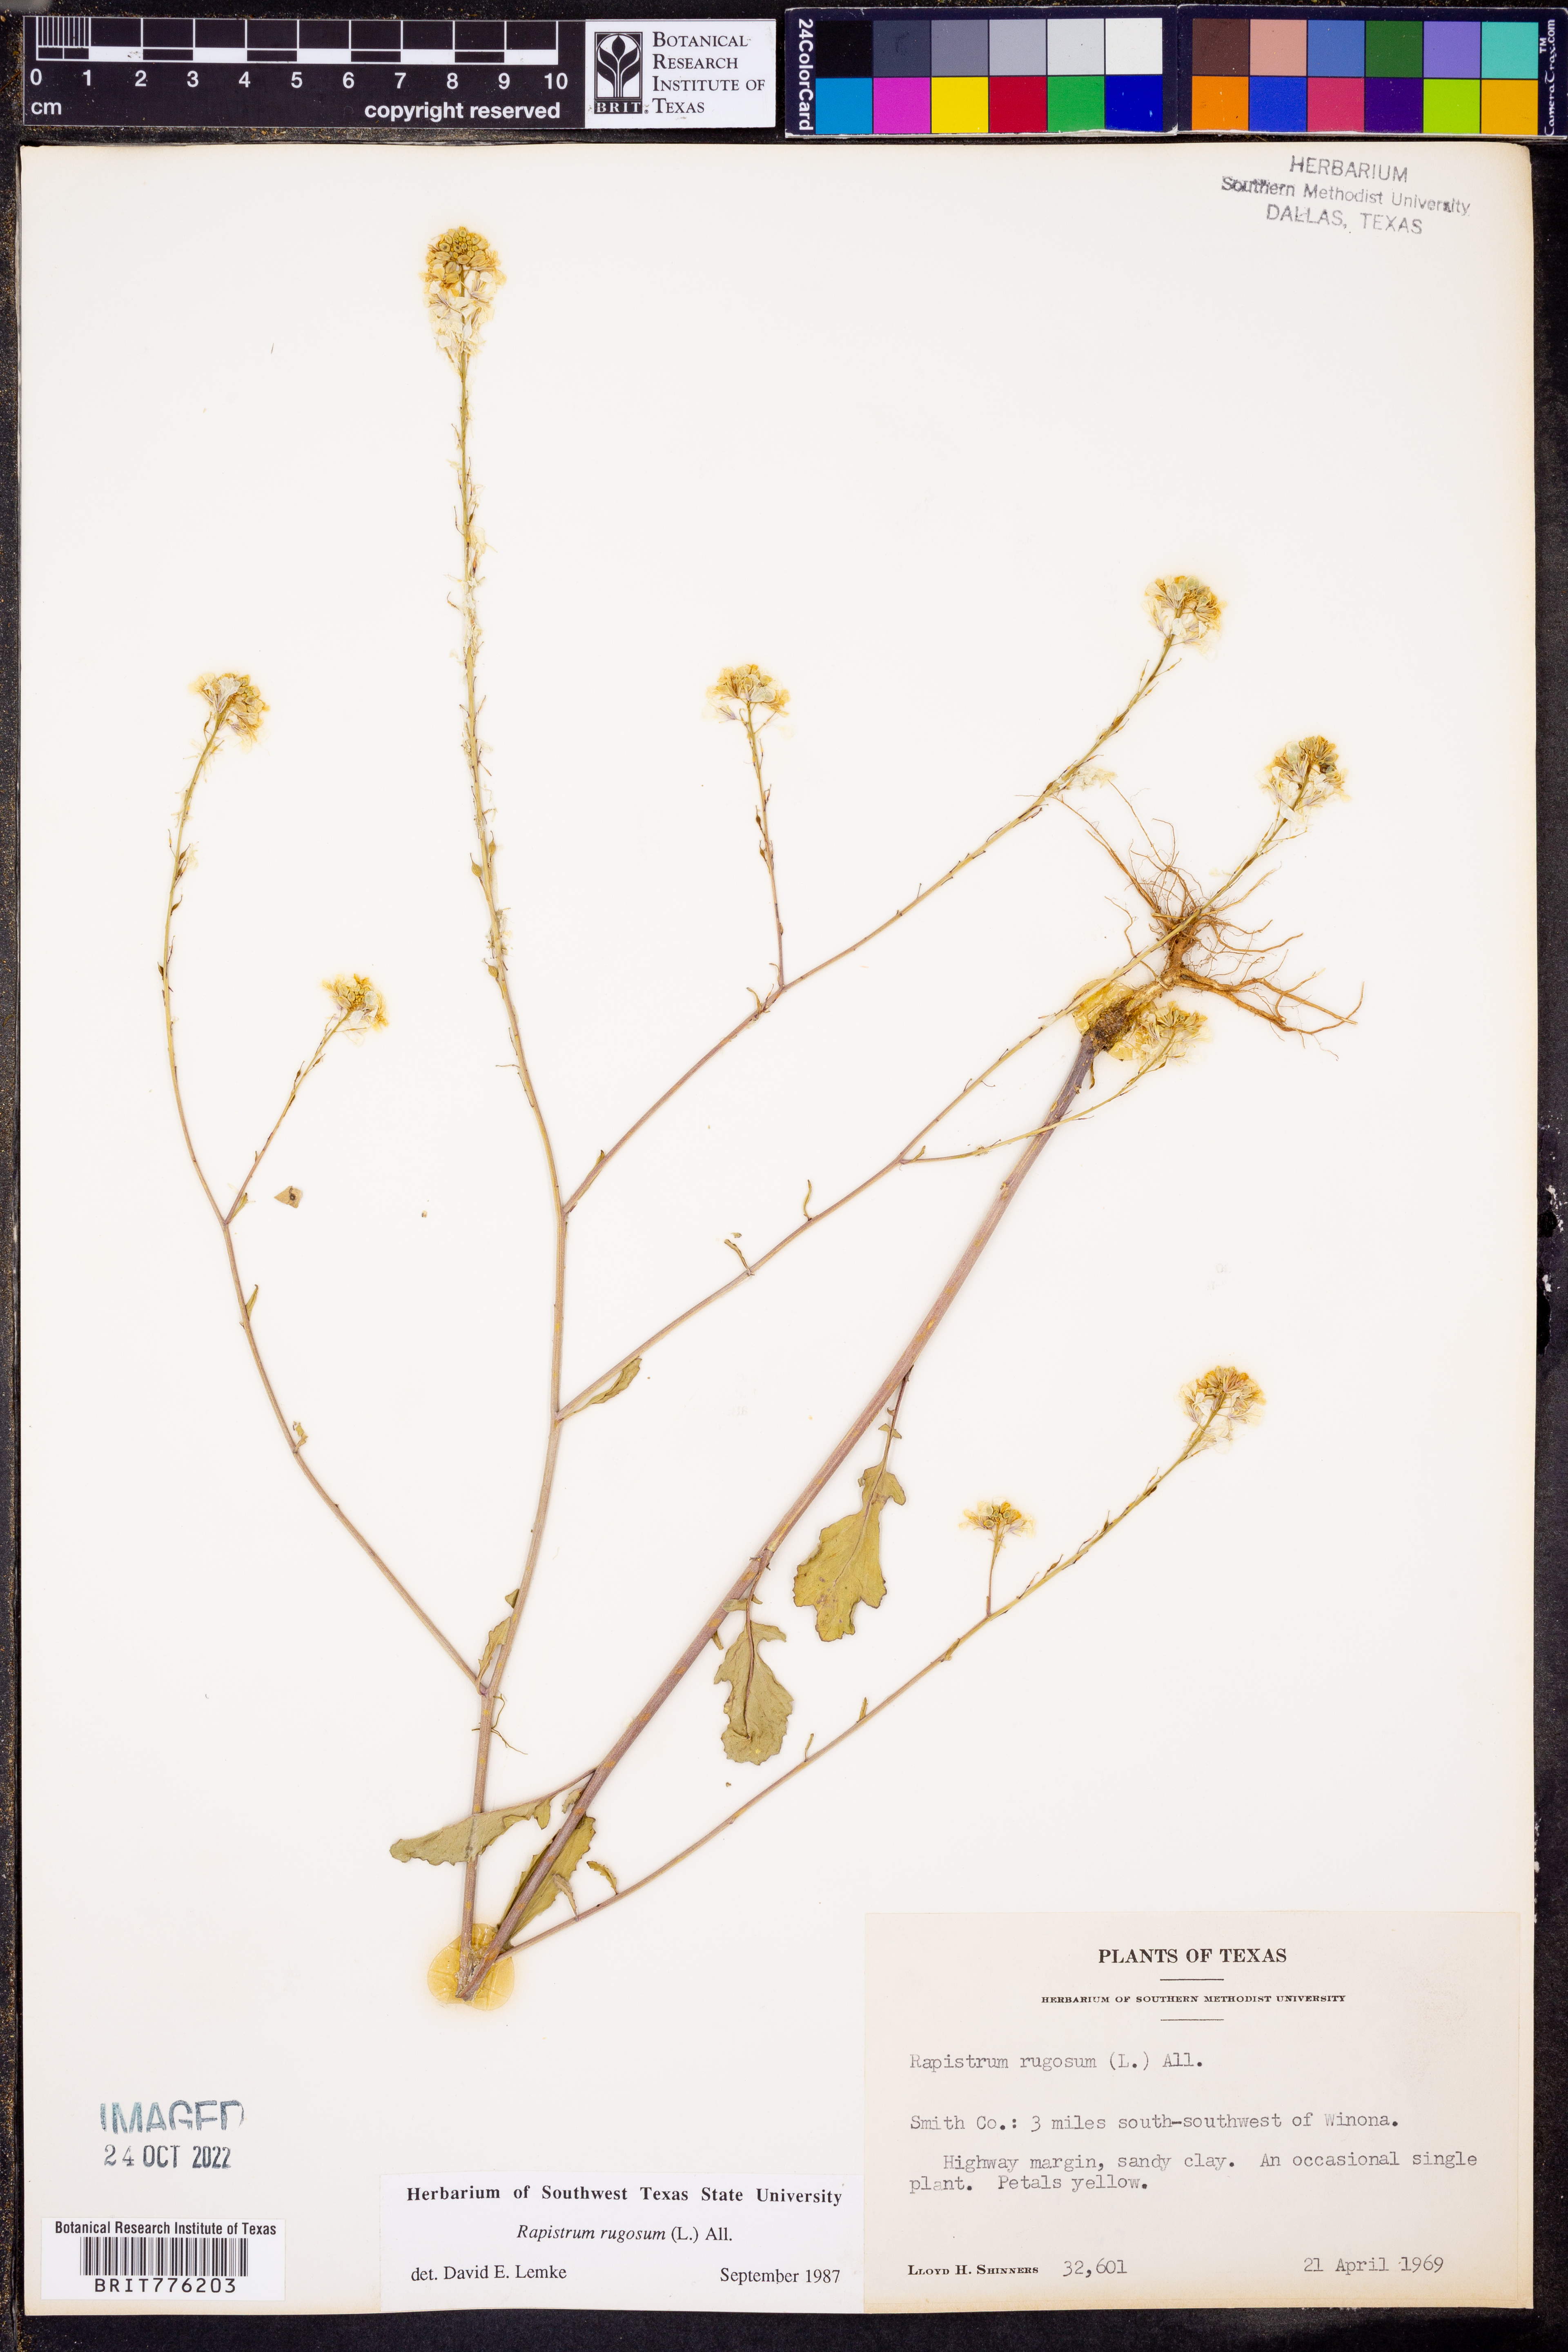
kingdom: Plantae
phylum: Tracheophyta
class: Magnoliopsida
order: Brassicales
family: Brassicaceae
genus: Rapistrum
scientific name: Rapistrum rugosum
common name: Annual bastardcabbage
